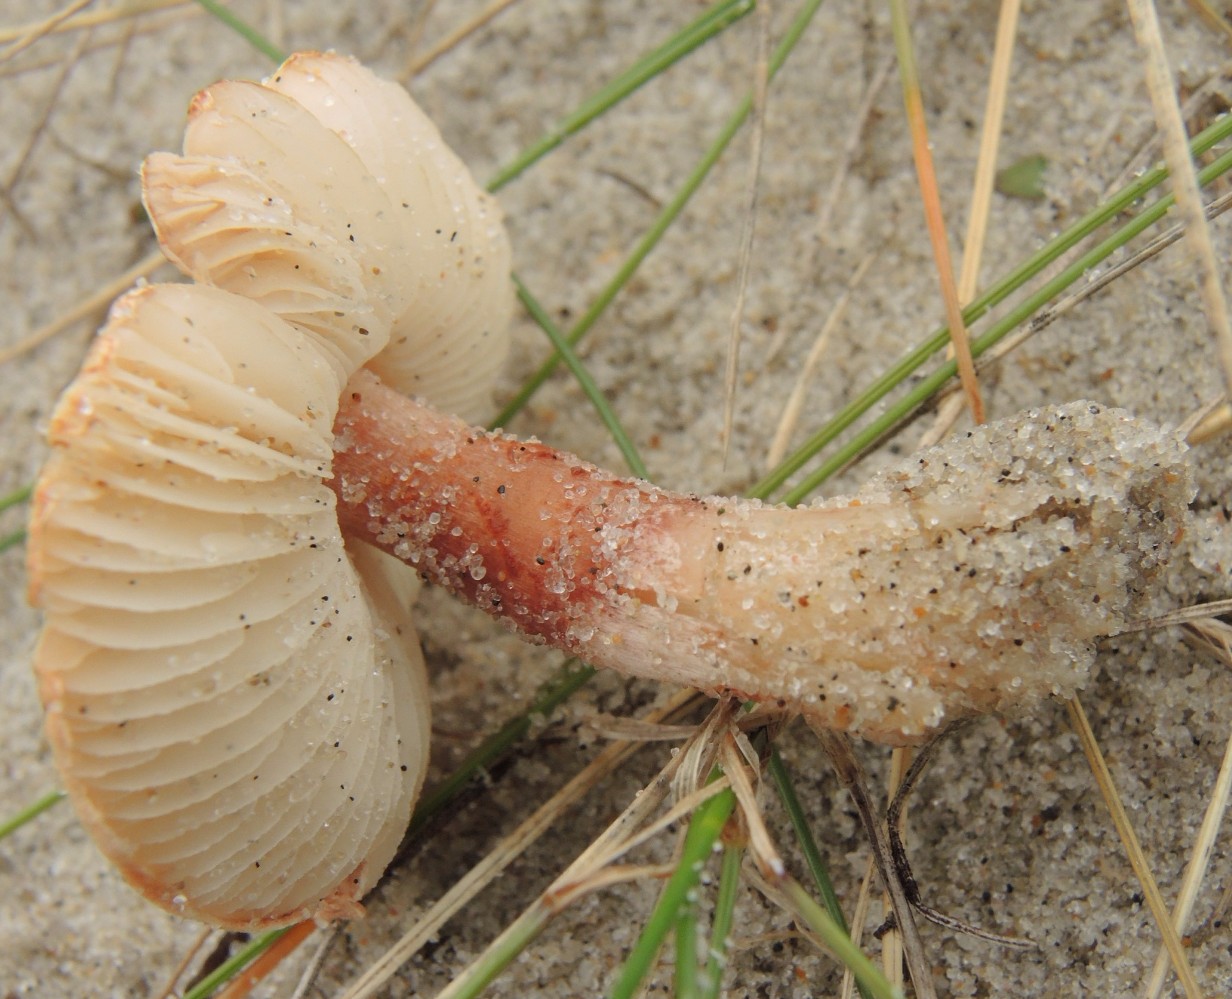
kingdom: Fungi
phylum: Basidiomycota
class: Agaricomycetes
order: Agaricales
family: Agaricaceae
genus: Lepiota
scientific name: Lepiota subincarnata
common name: kødfarvet parasolhat
